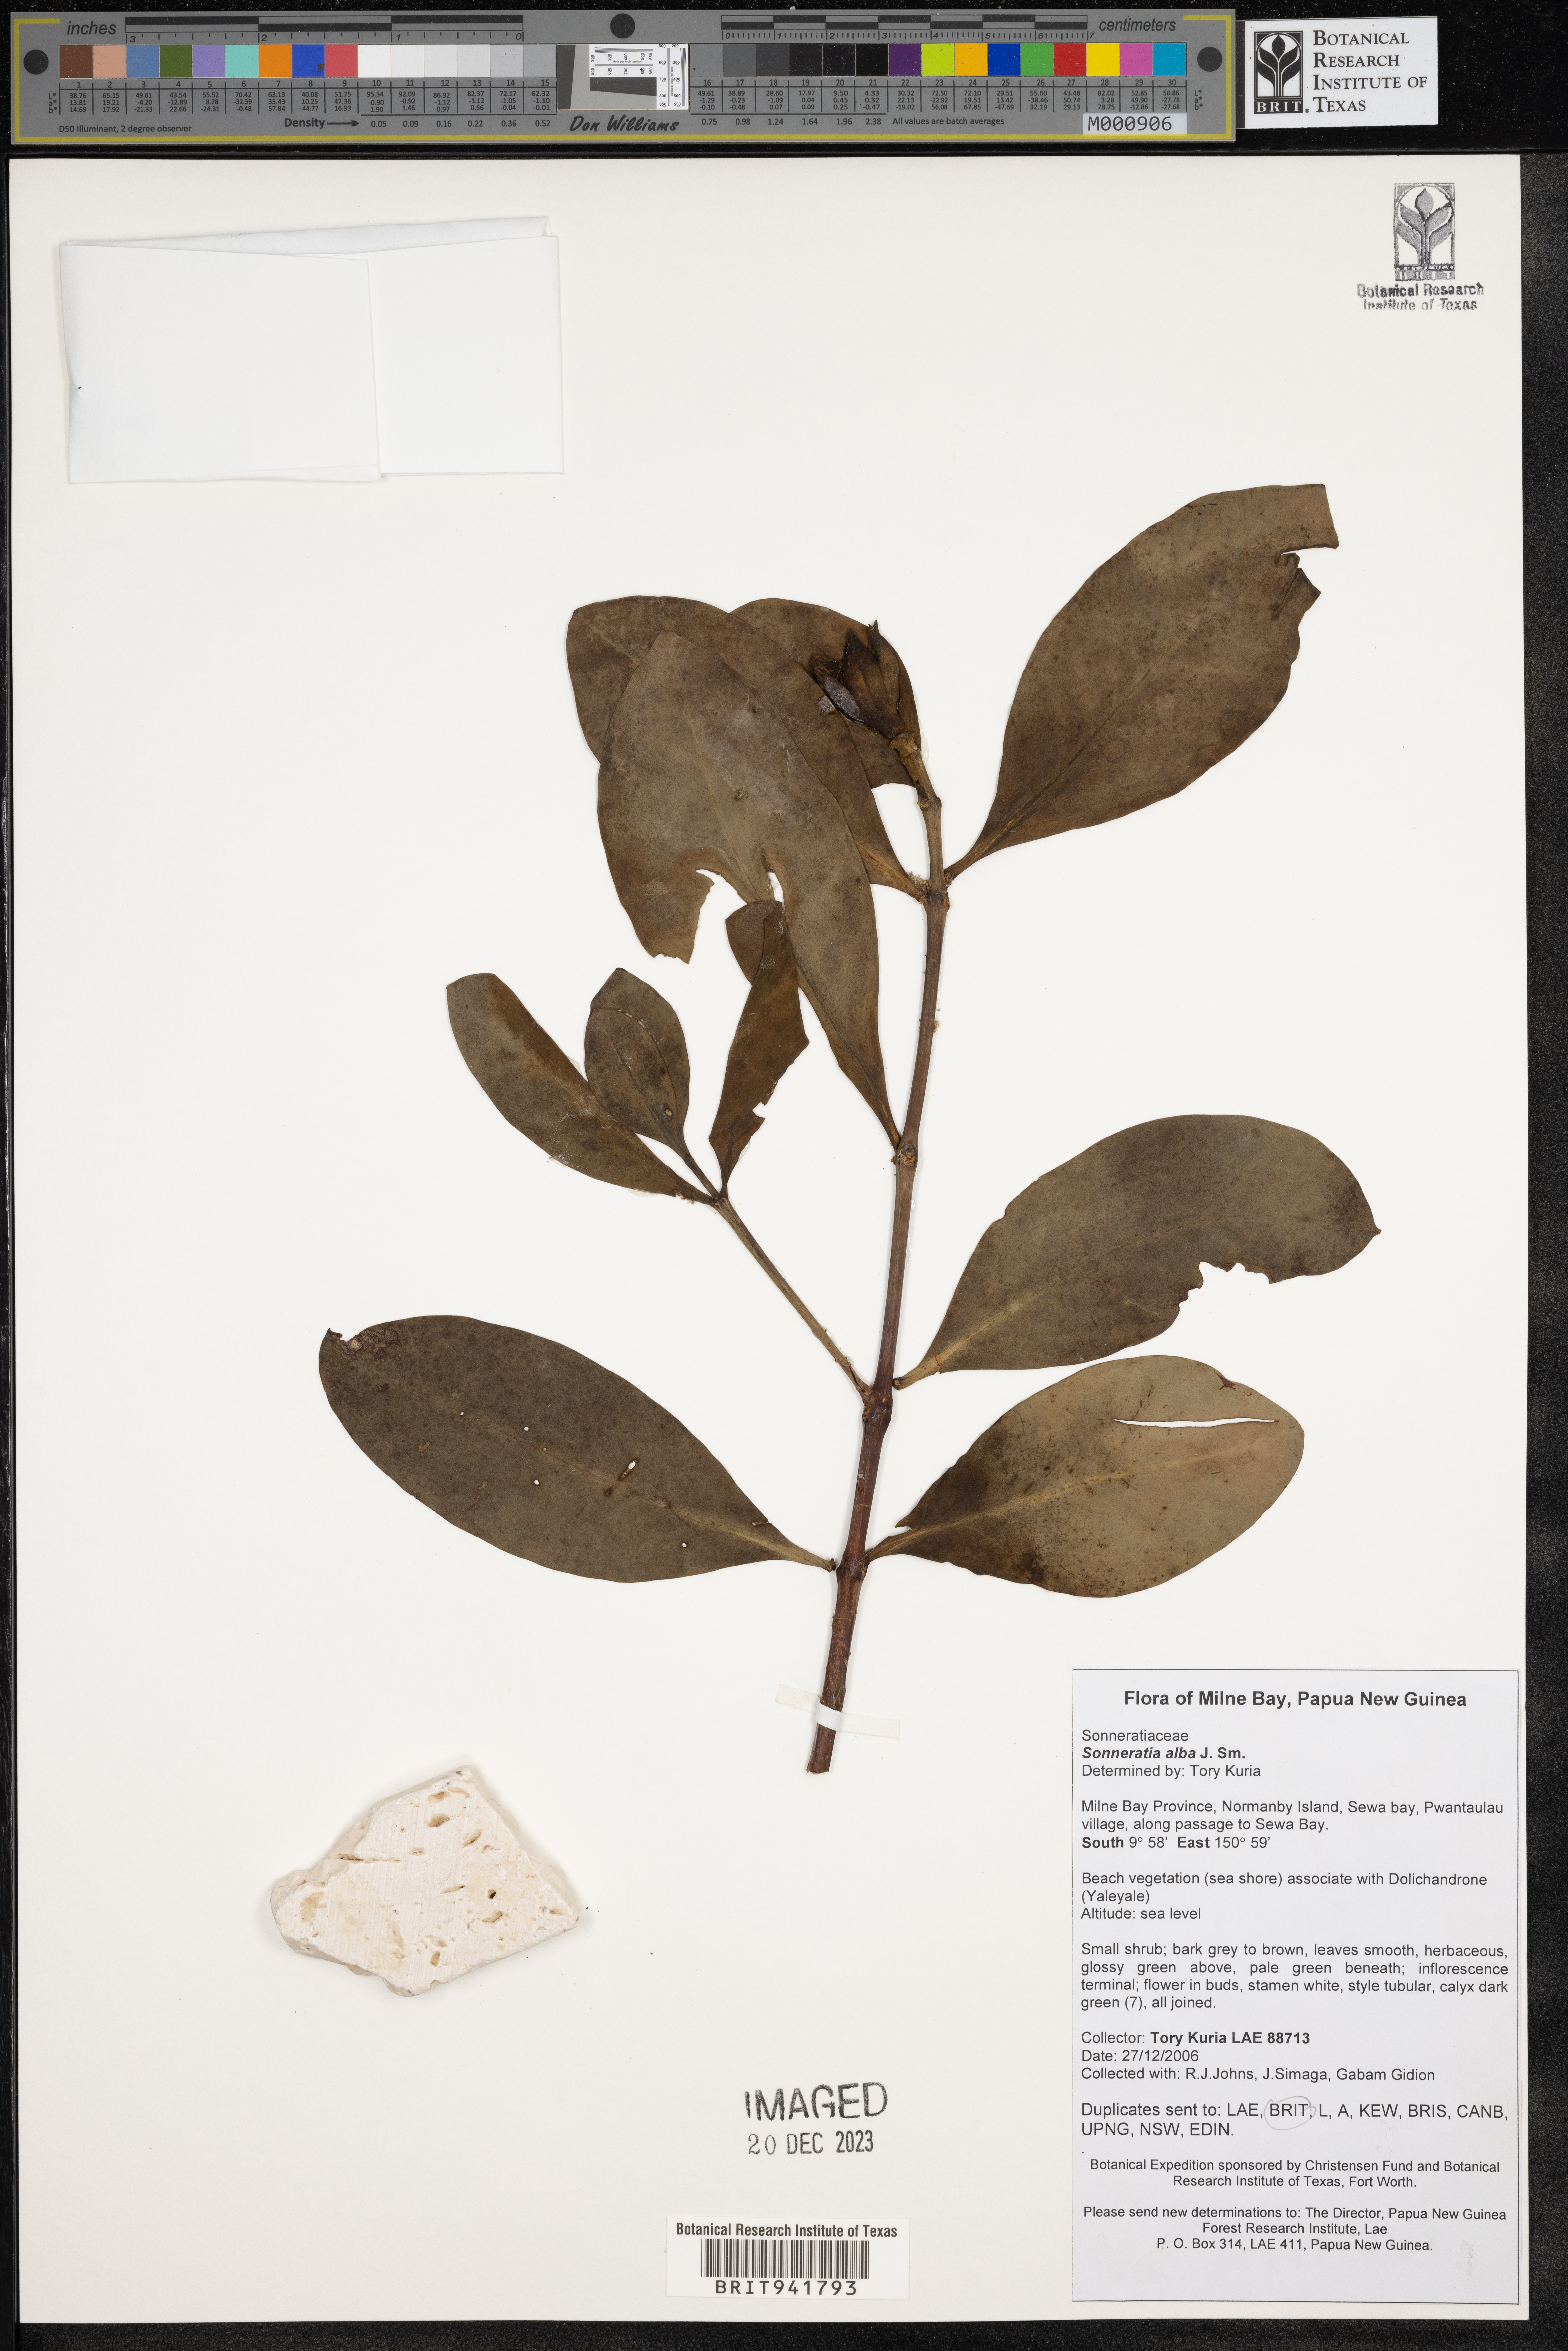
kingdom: Plantae
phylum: Tracheophyta
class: Magnoliopsida
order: Myrtales
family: Lythraceae
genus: Sonneratia
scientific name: Sonneratia
